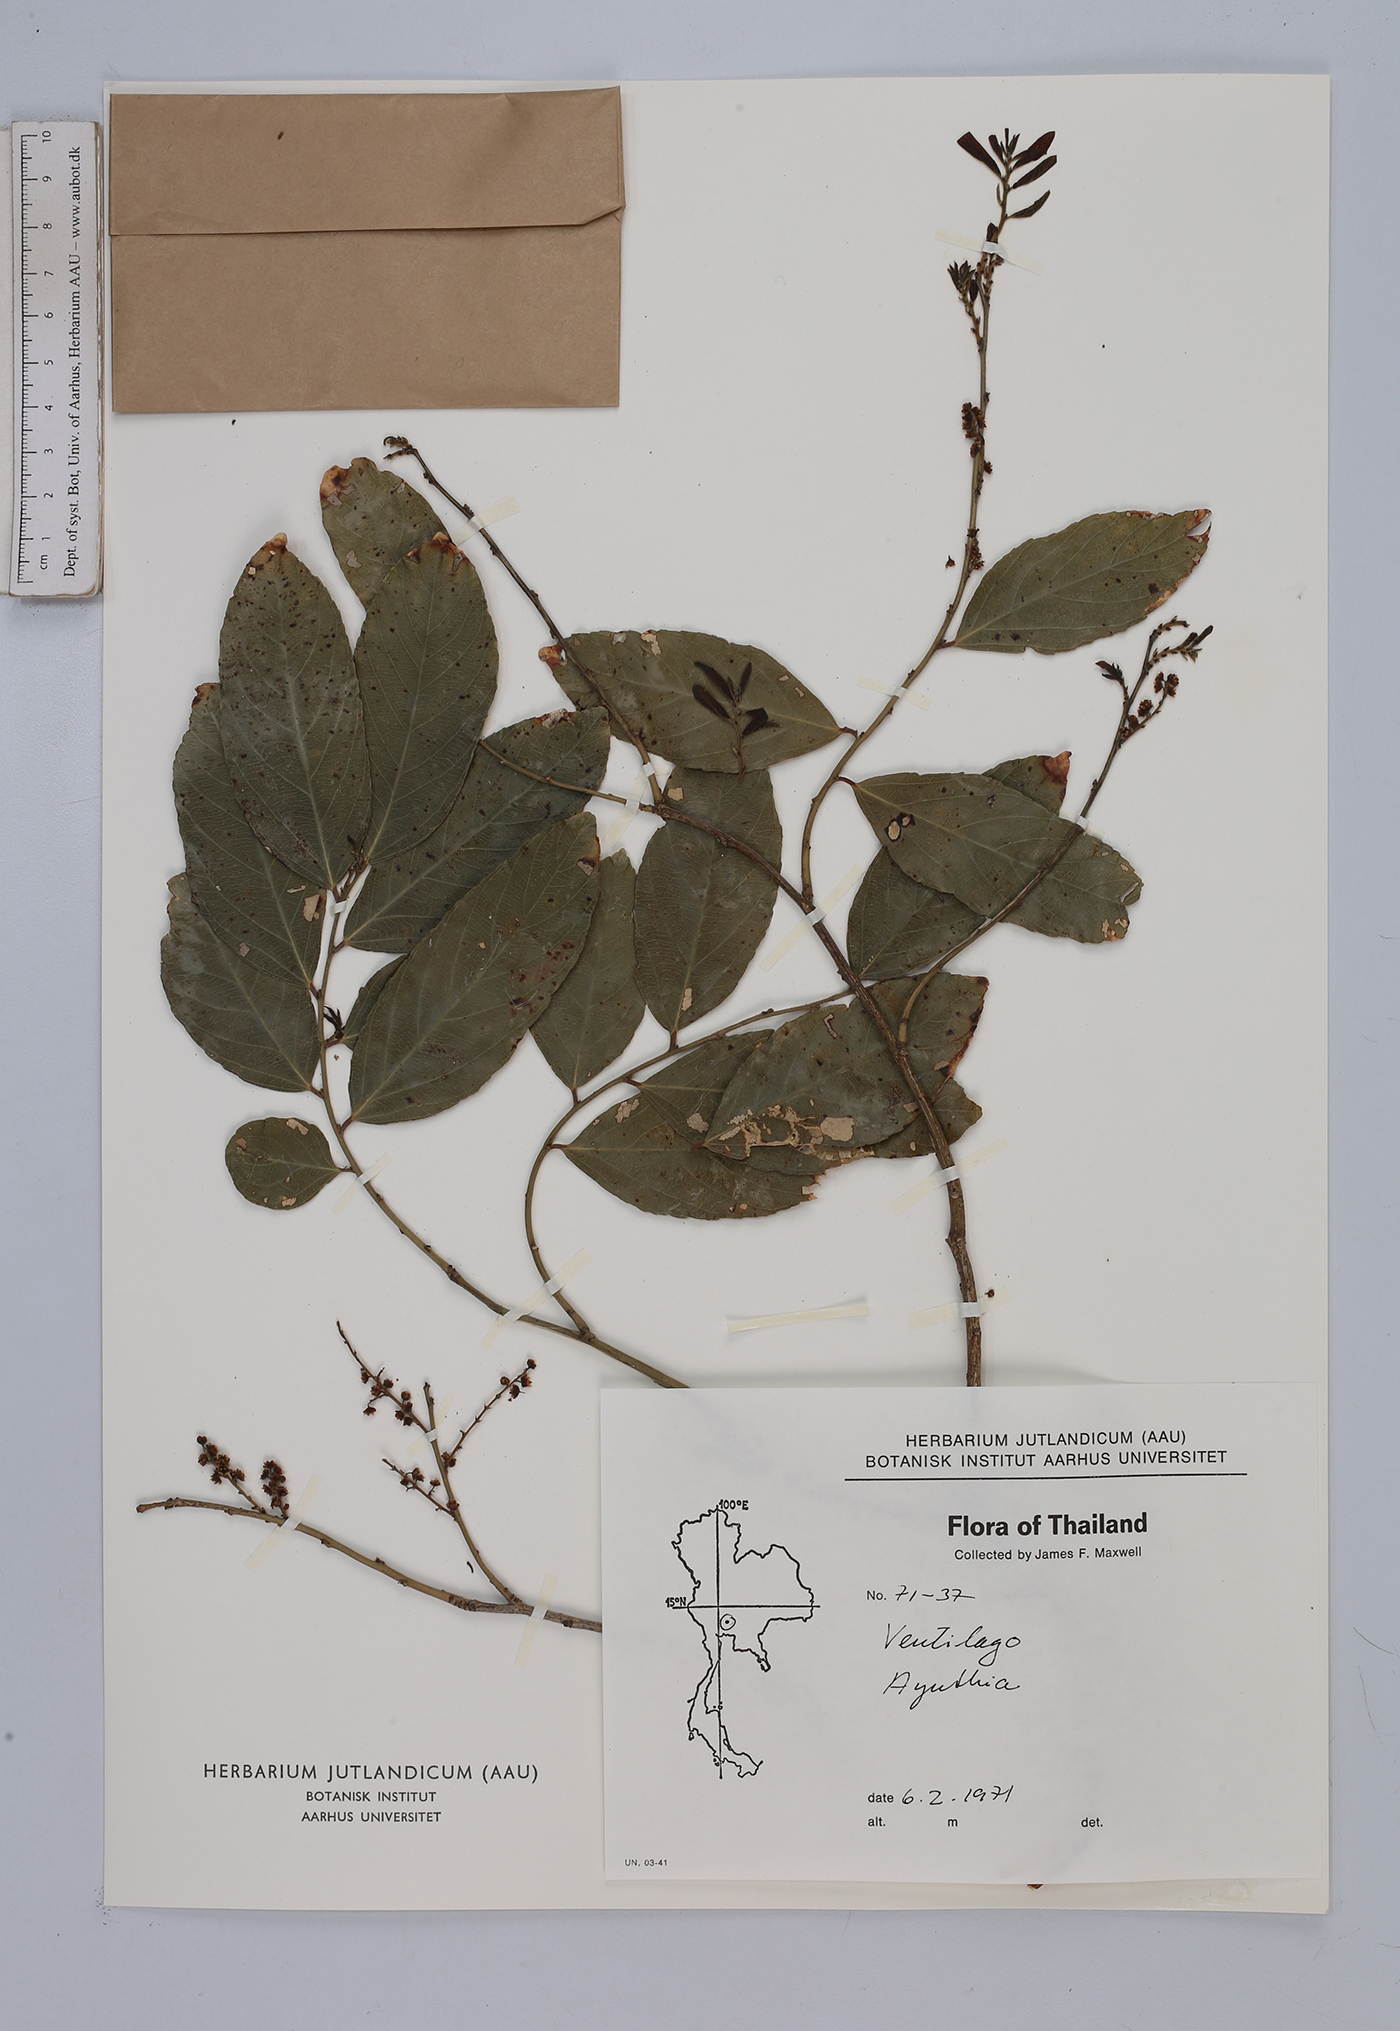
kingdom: Plantae
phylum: Tracheophyta
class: Magnoliopsida
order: Rosales
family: Rhamnaceae
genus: Ventilago
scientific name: Ventilago
